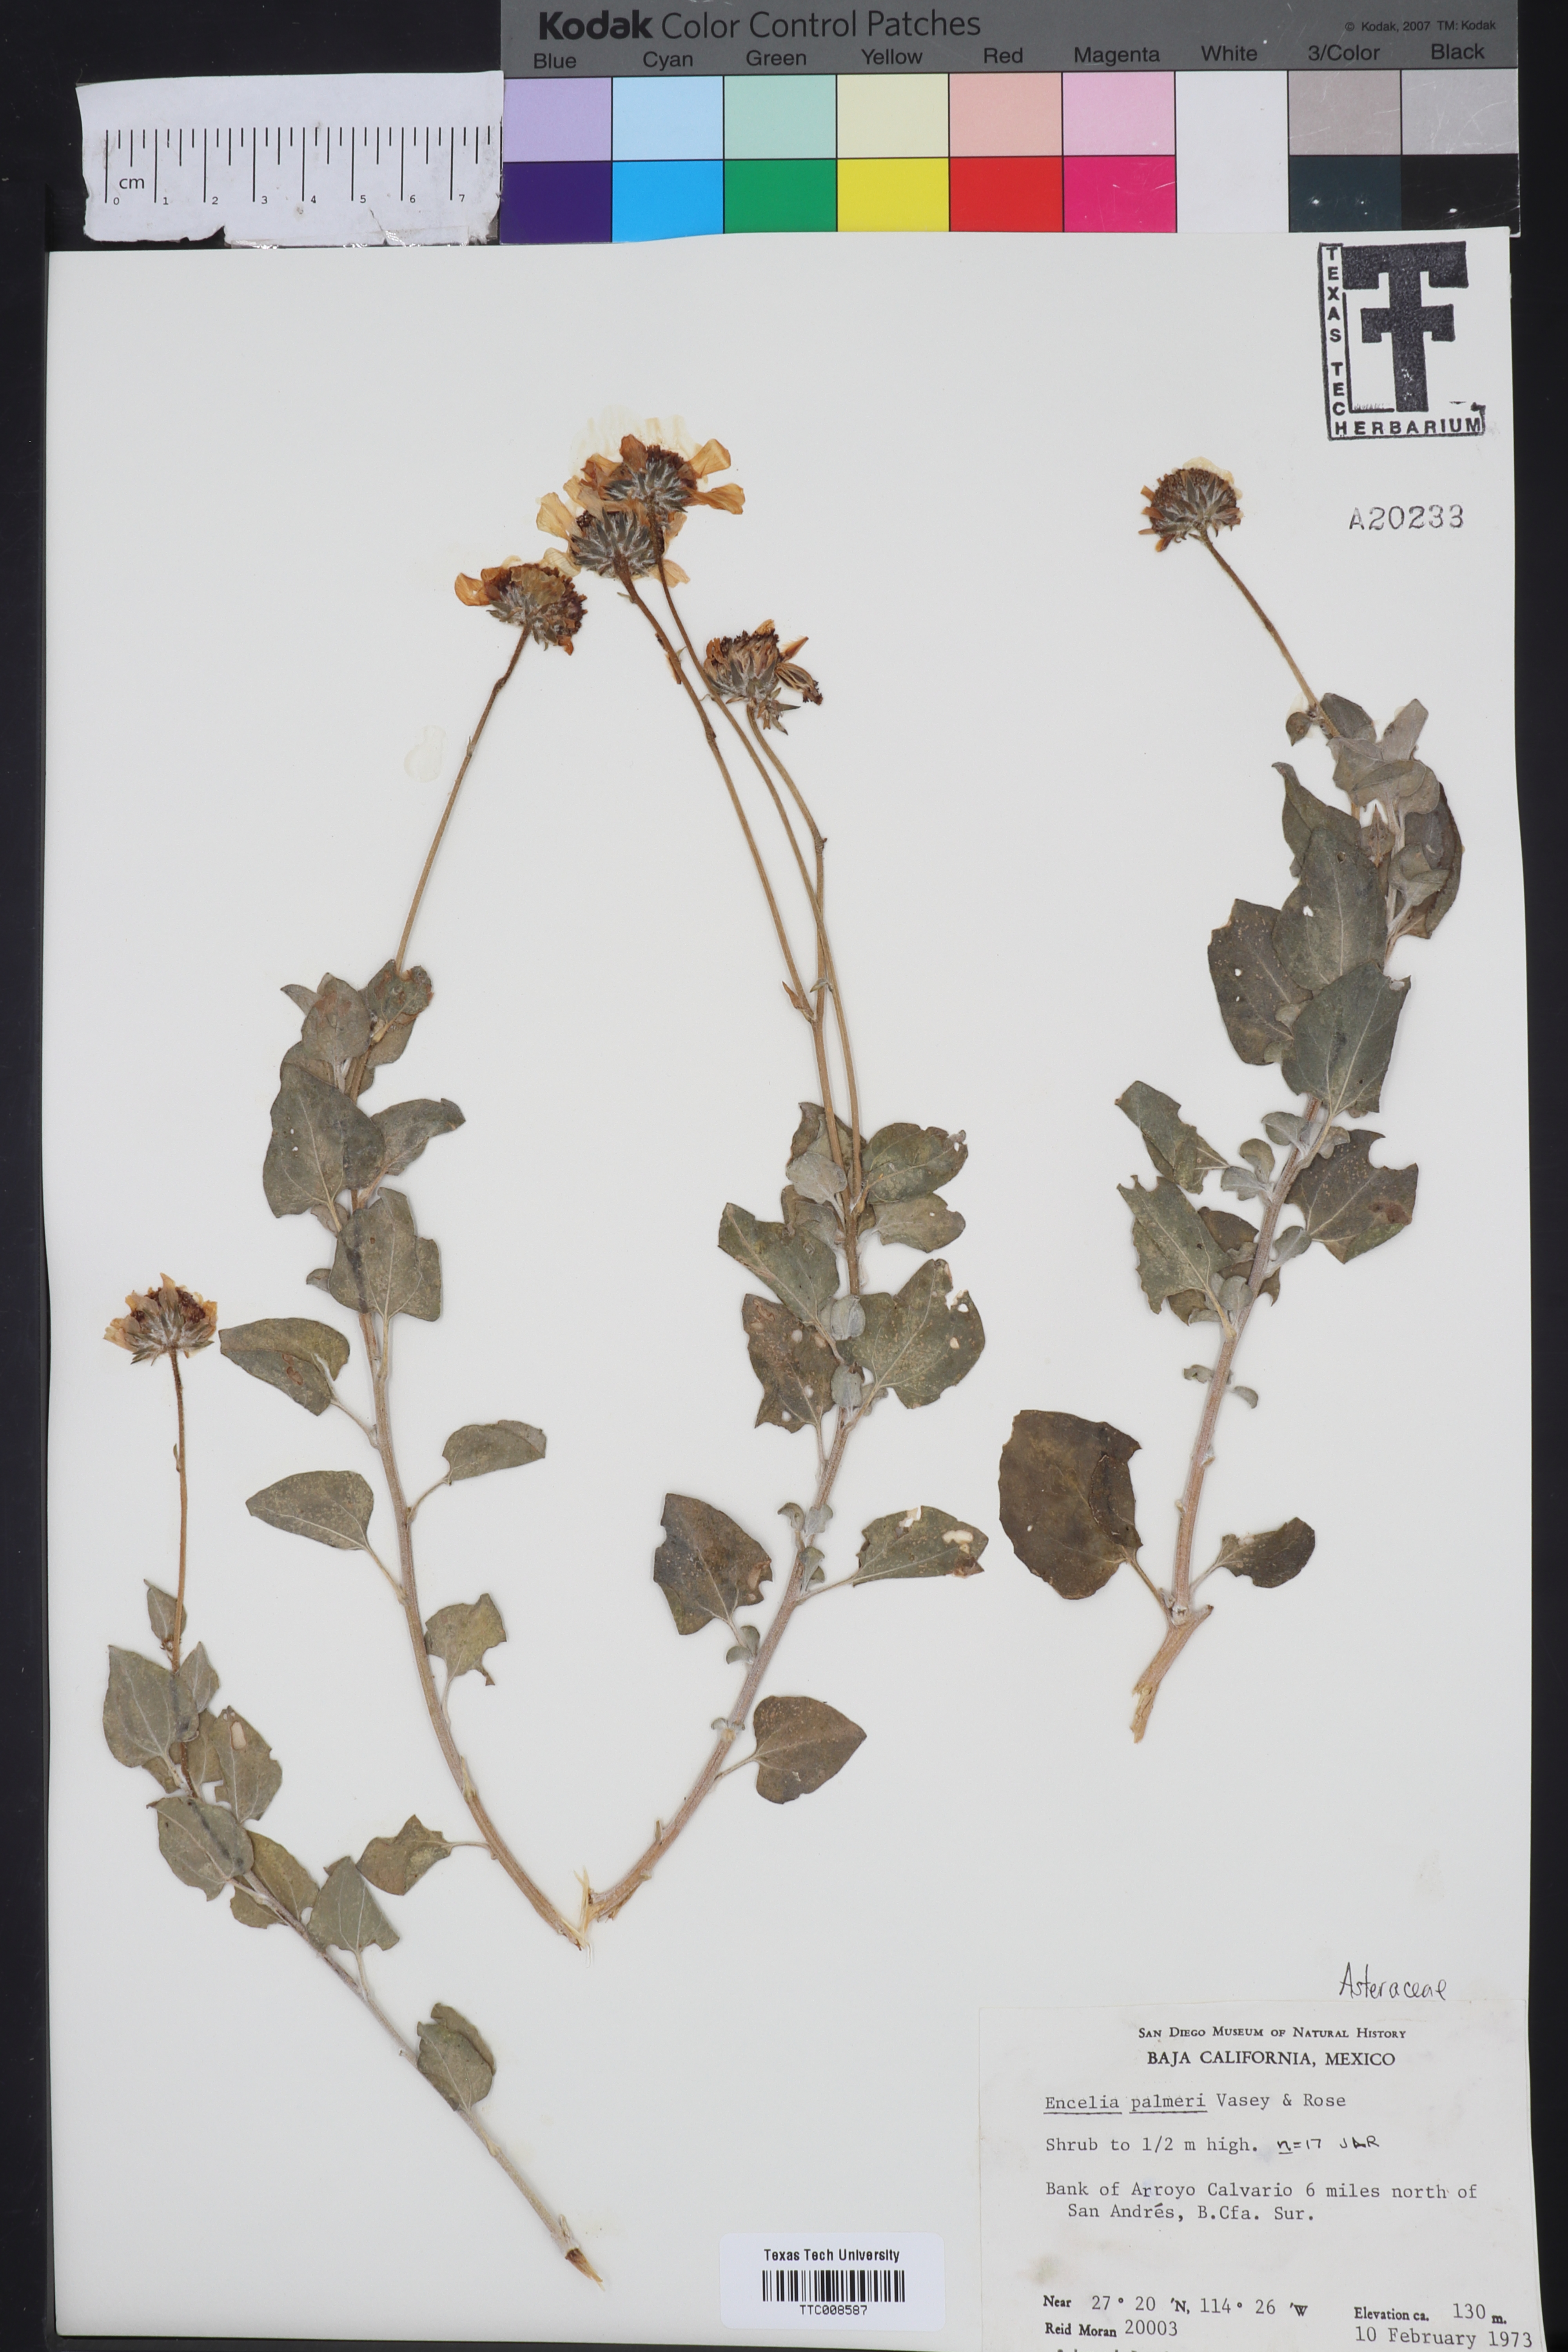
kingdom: Plantae
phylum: Tracheophyta
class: Magnoliopsida
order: Asterales
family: Asteraceae
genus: Encelia
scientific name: Encelia palmeri
